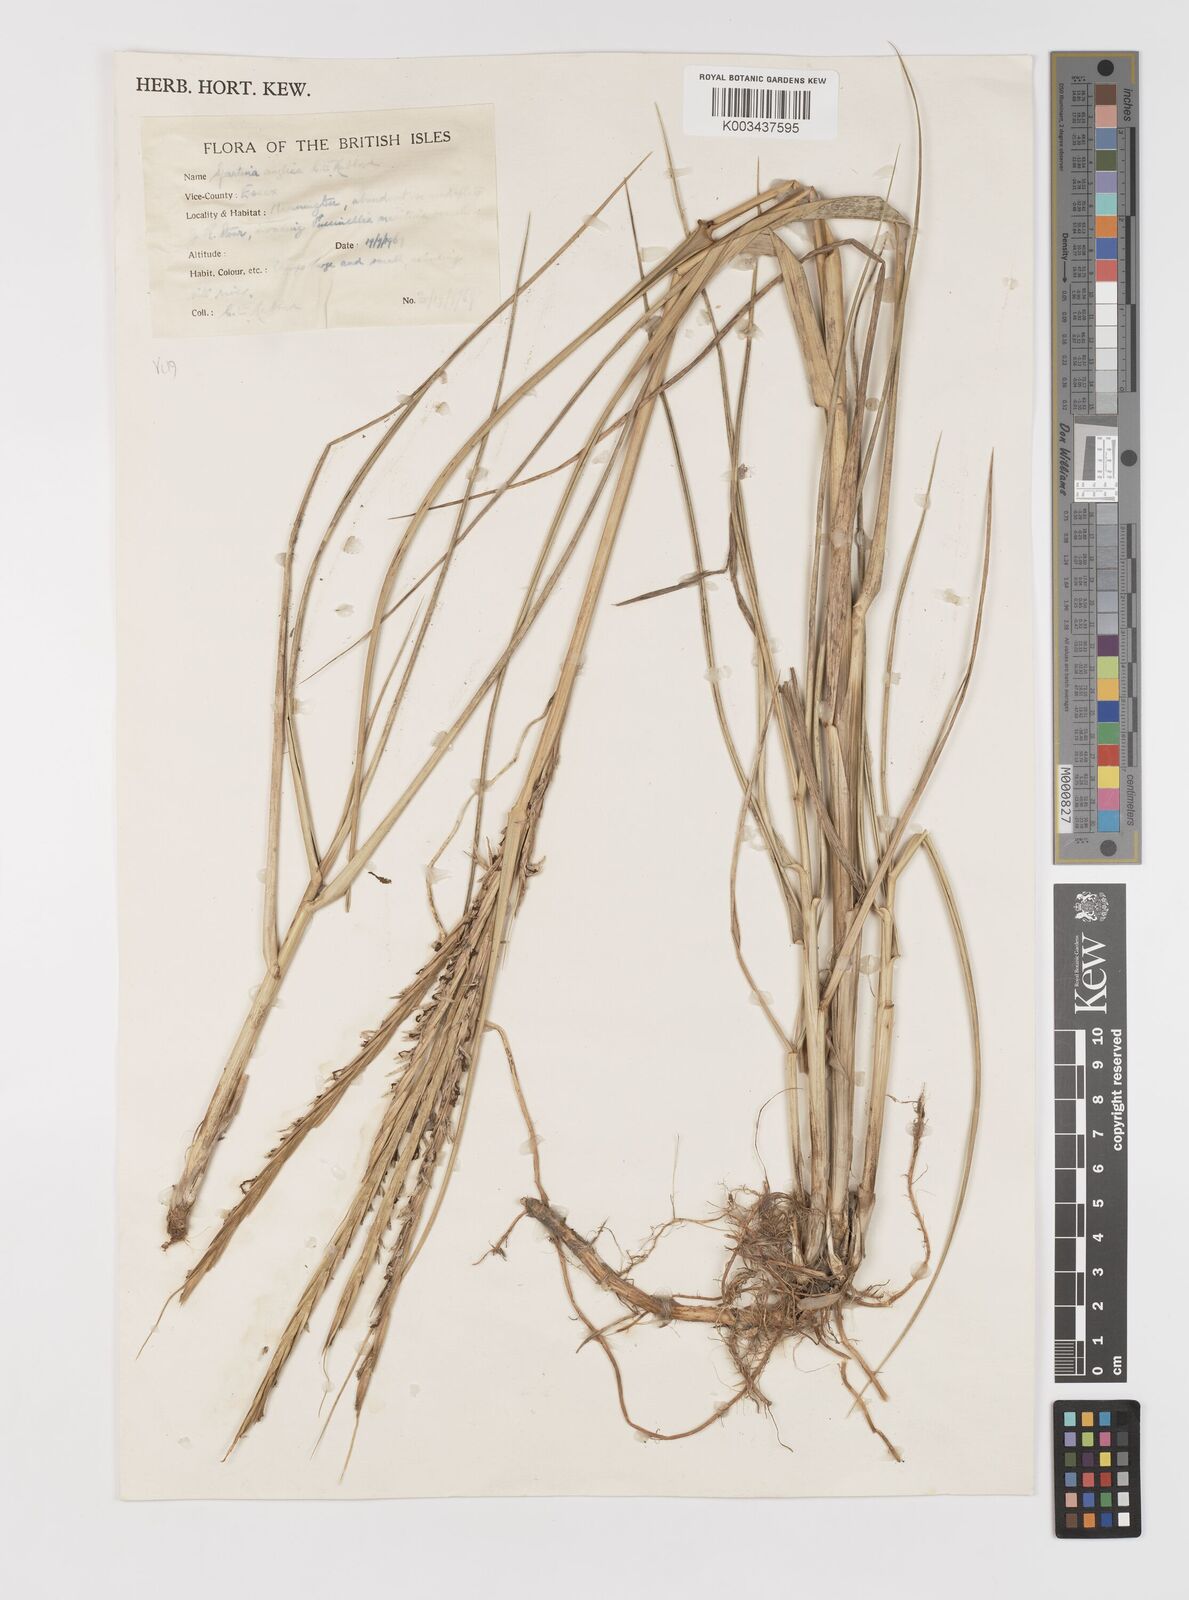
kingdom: Plantae
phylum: Tracheophyta
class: Liliopsida
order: Poales
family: Poaceae
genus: Sporobolus
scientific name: Sporobolus anglicus
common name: English cordgrass
